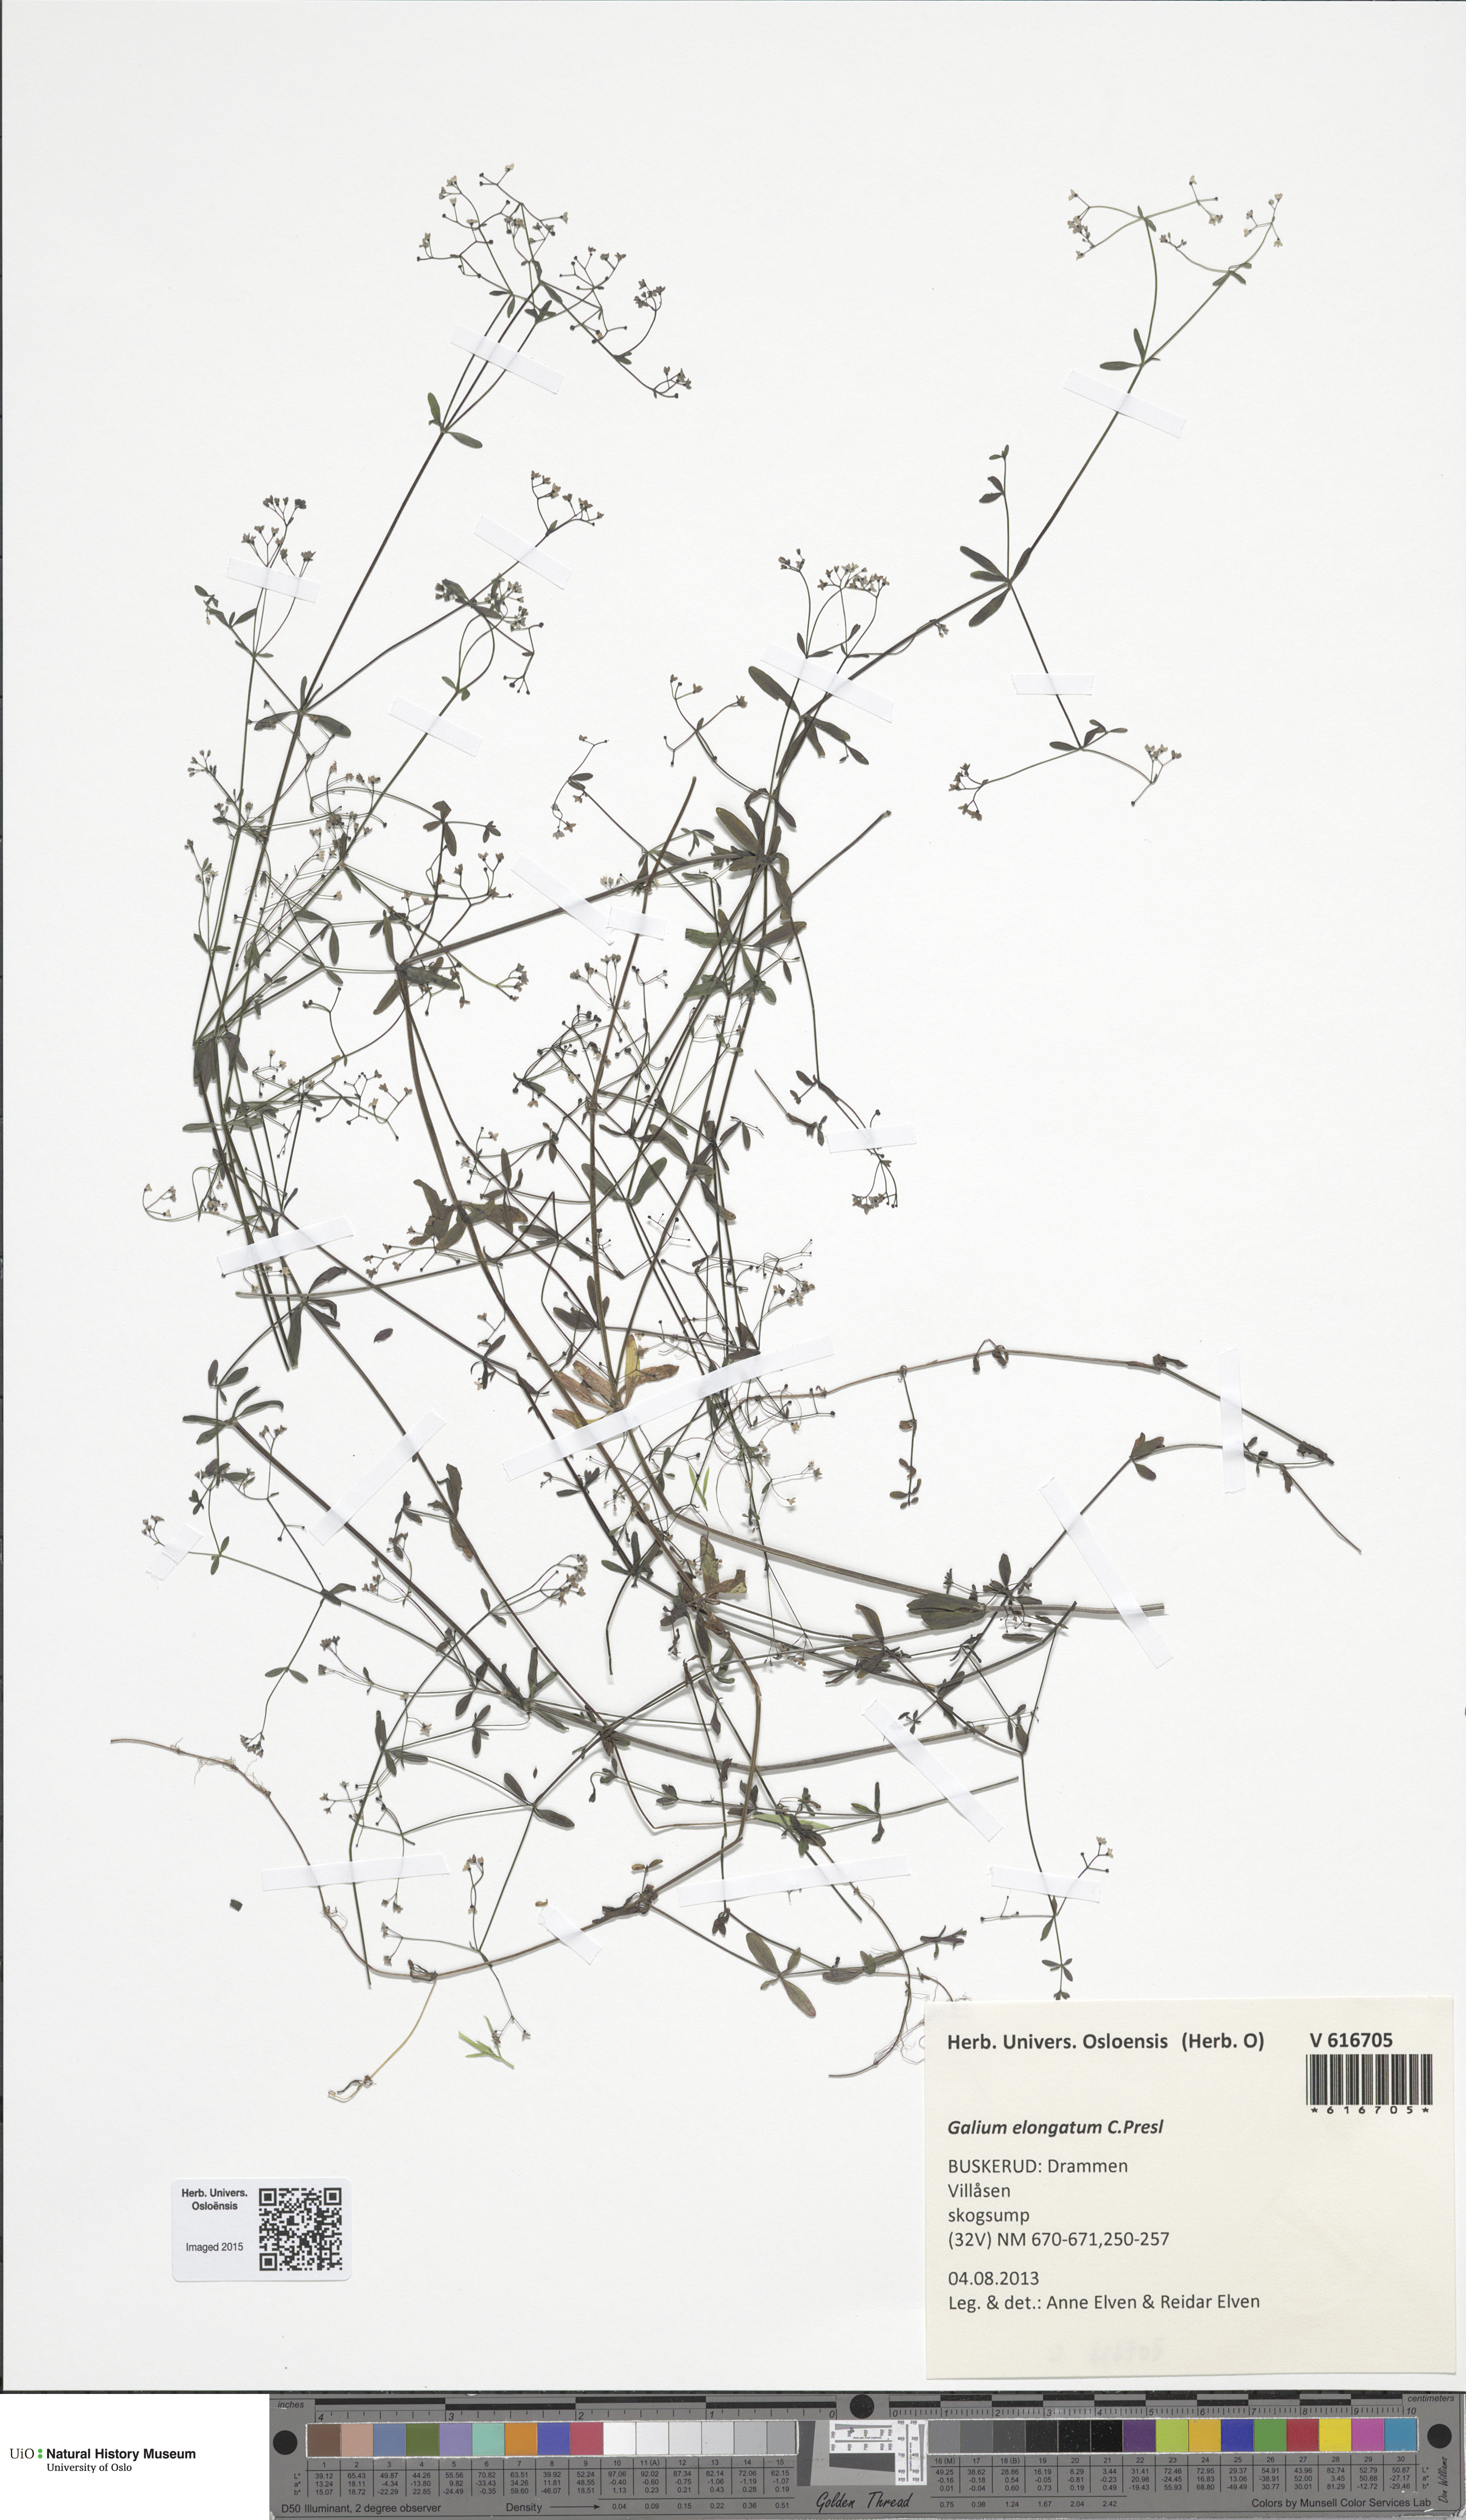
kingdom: Plantae
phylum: Tracheophyta
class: Magnoliopsida
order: Gentianales
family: Rubiaceae
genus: Galium
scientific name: Galium elongatum
